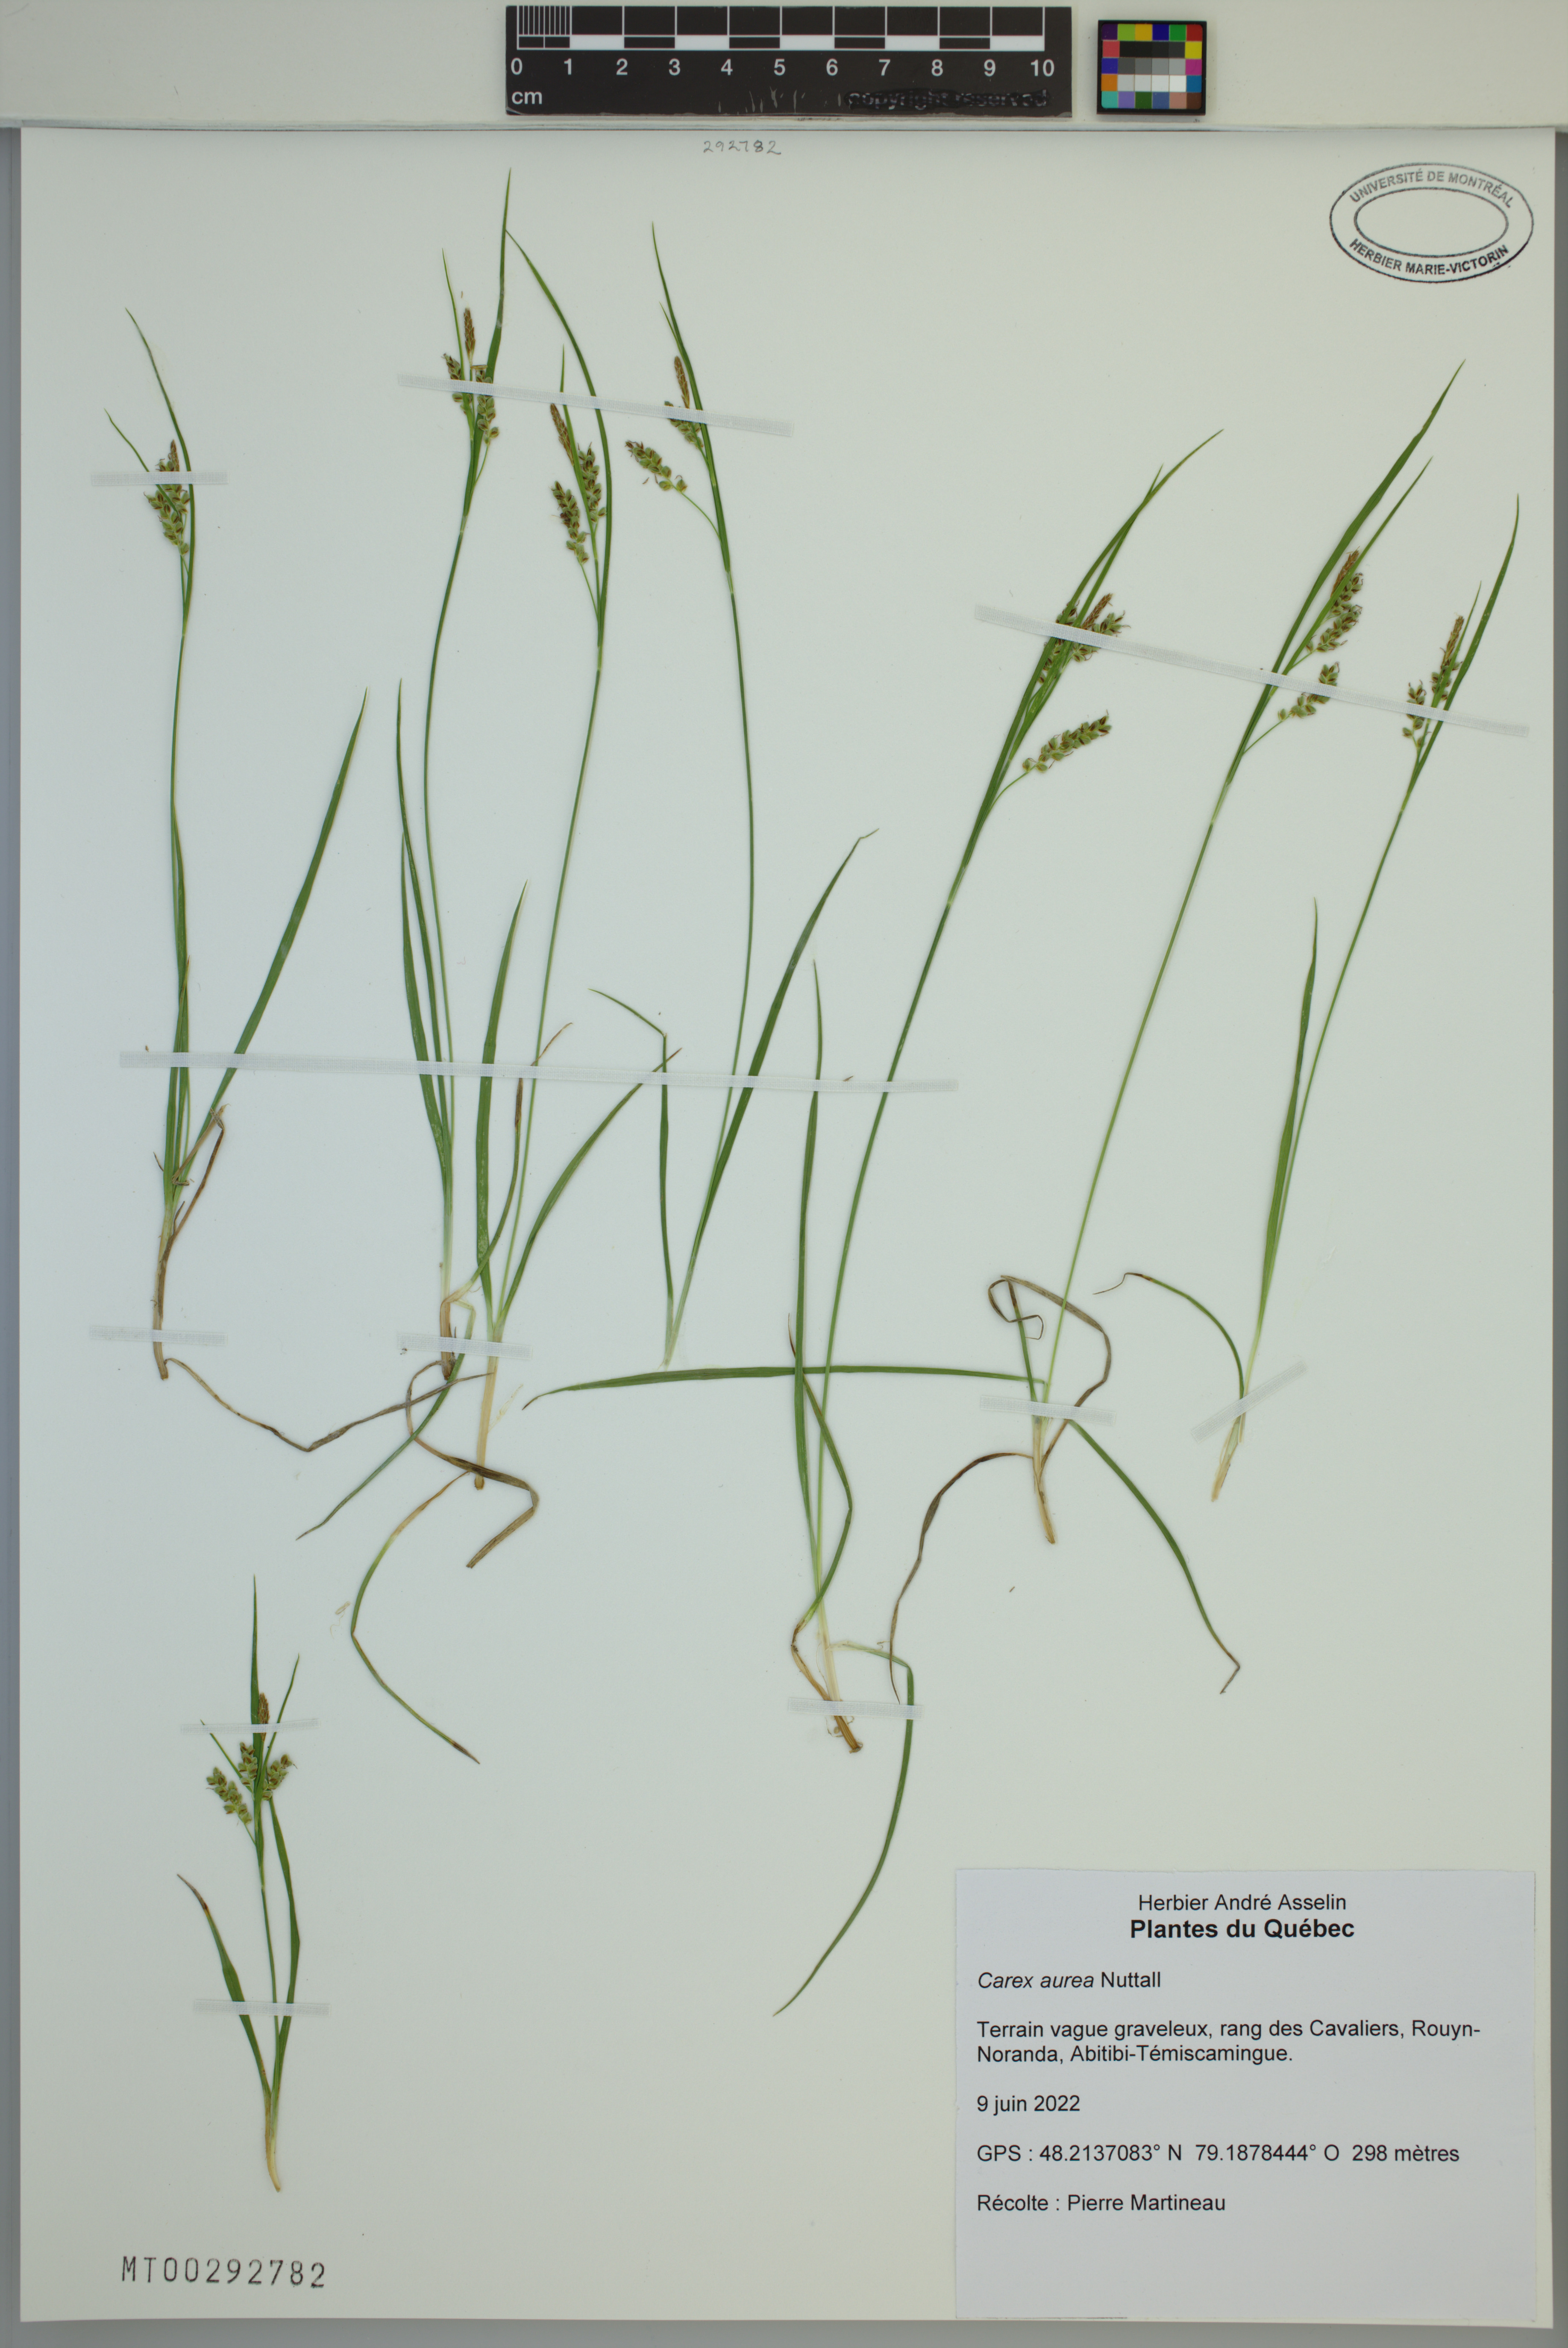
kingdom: Plantae
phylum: Tracheophyta
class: Liliopsida
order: Poales
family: Cyperaceae
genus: Carex
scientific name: Carex aurea
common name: Golden sedge
